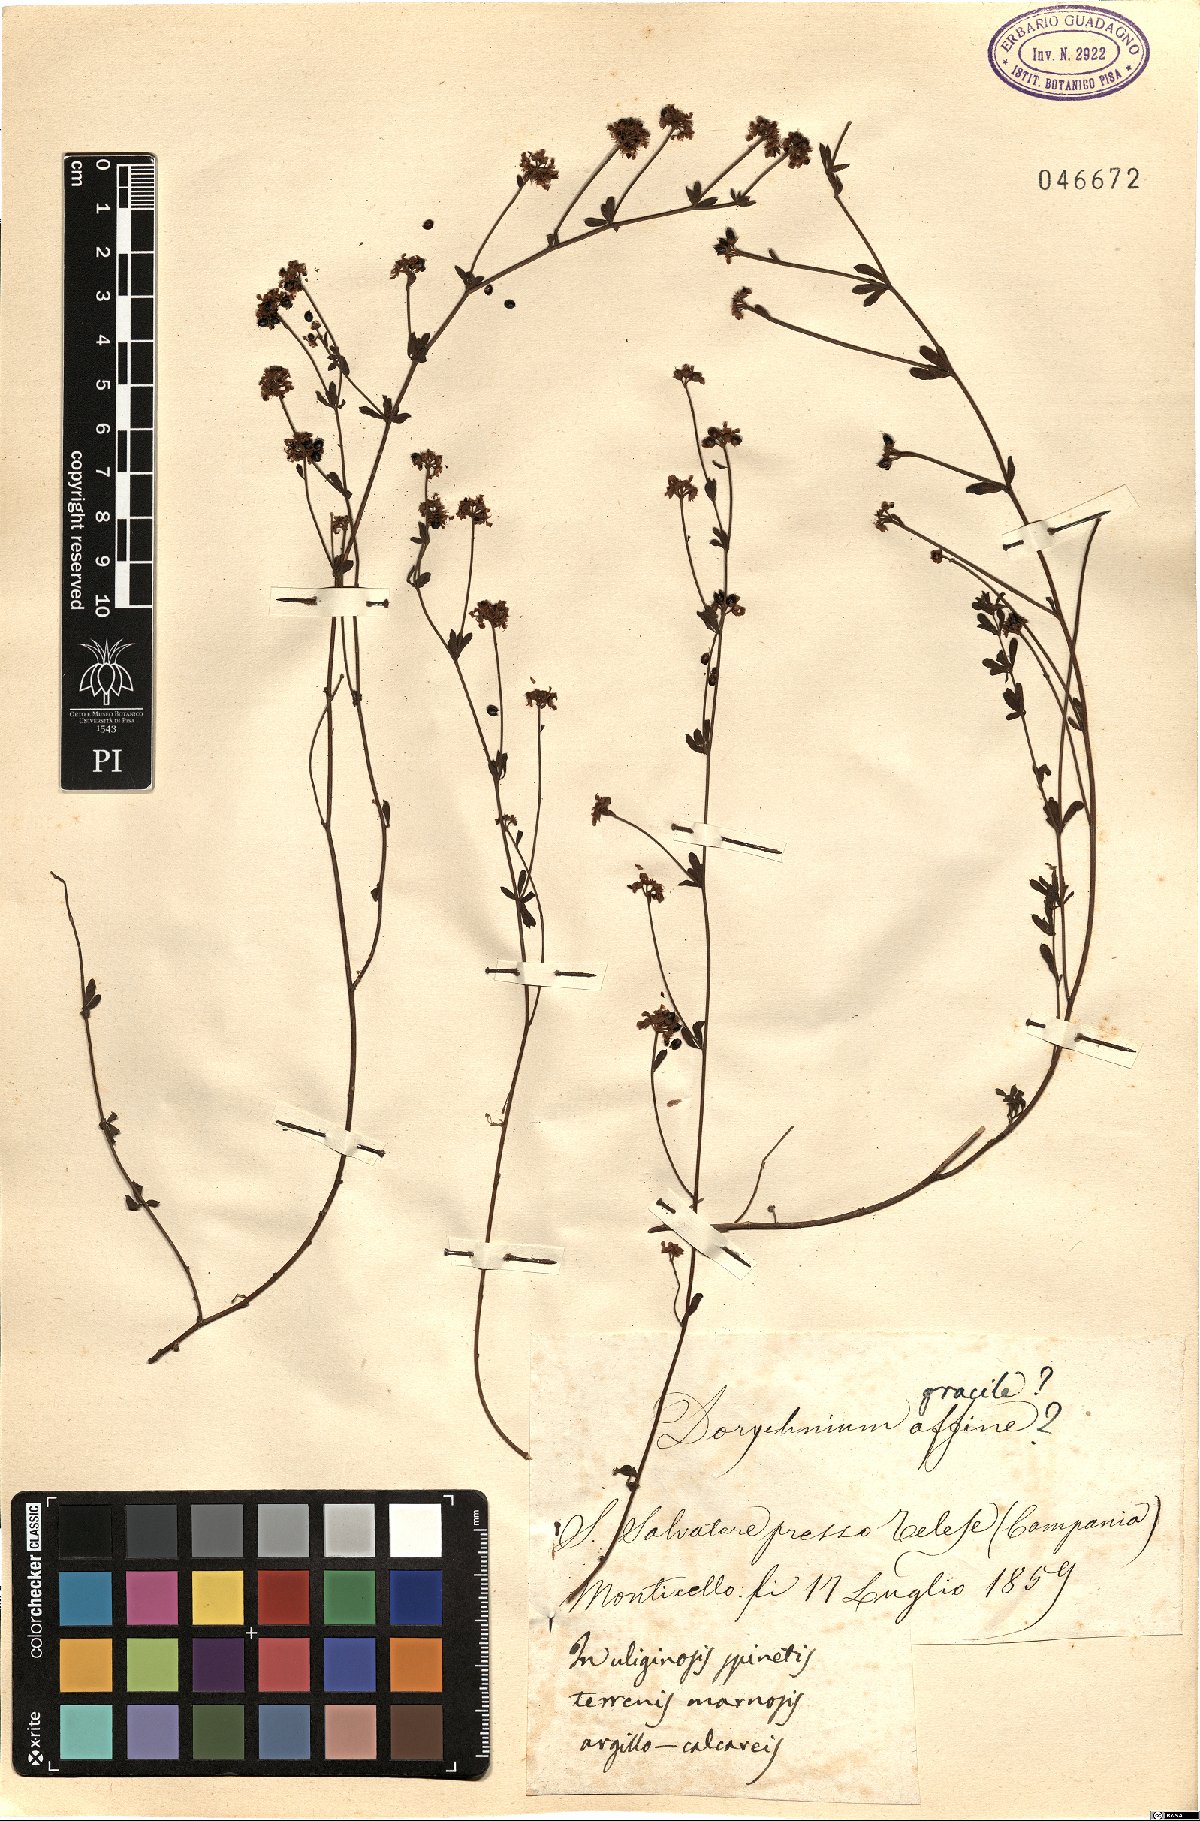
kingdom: Plantae
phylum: Tracheophyta
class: Magnoliopsida
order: Fabales
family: Fabaceae
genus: Lotus
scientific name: Lotus jordanii
